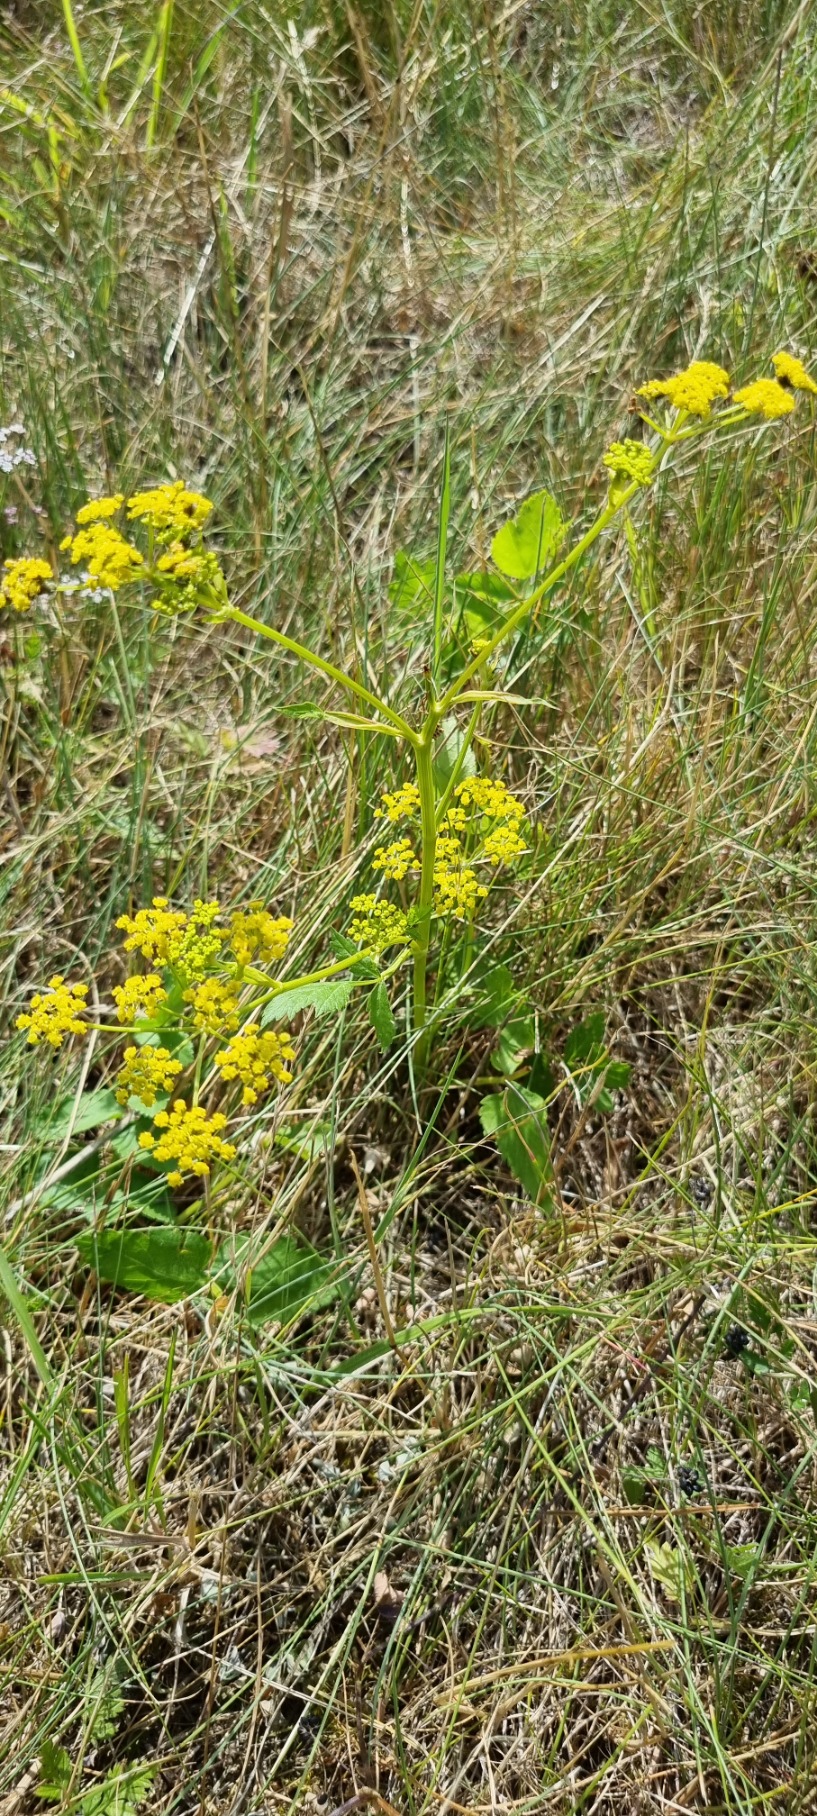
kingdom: Plantae
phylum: Tracheophyta
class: Magnoliopsida
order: Apiales
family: Apiaceae
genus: Pastinaca
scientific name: Pastinaca sativa
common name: Pastinak
